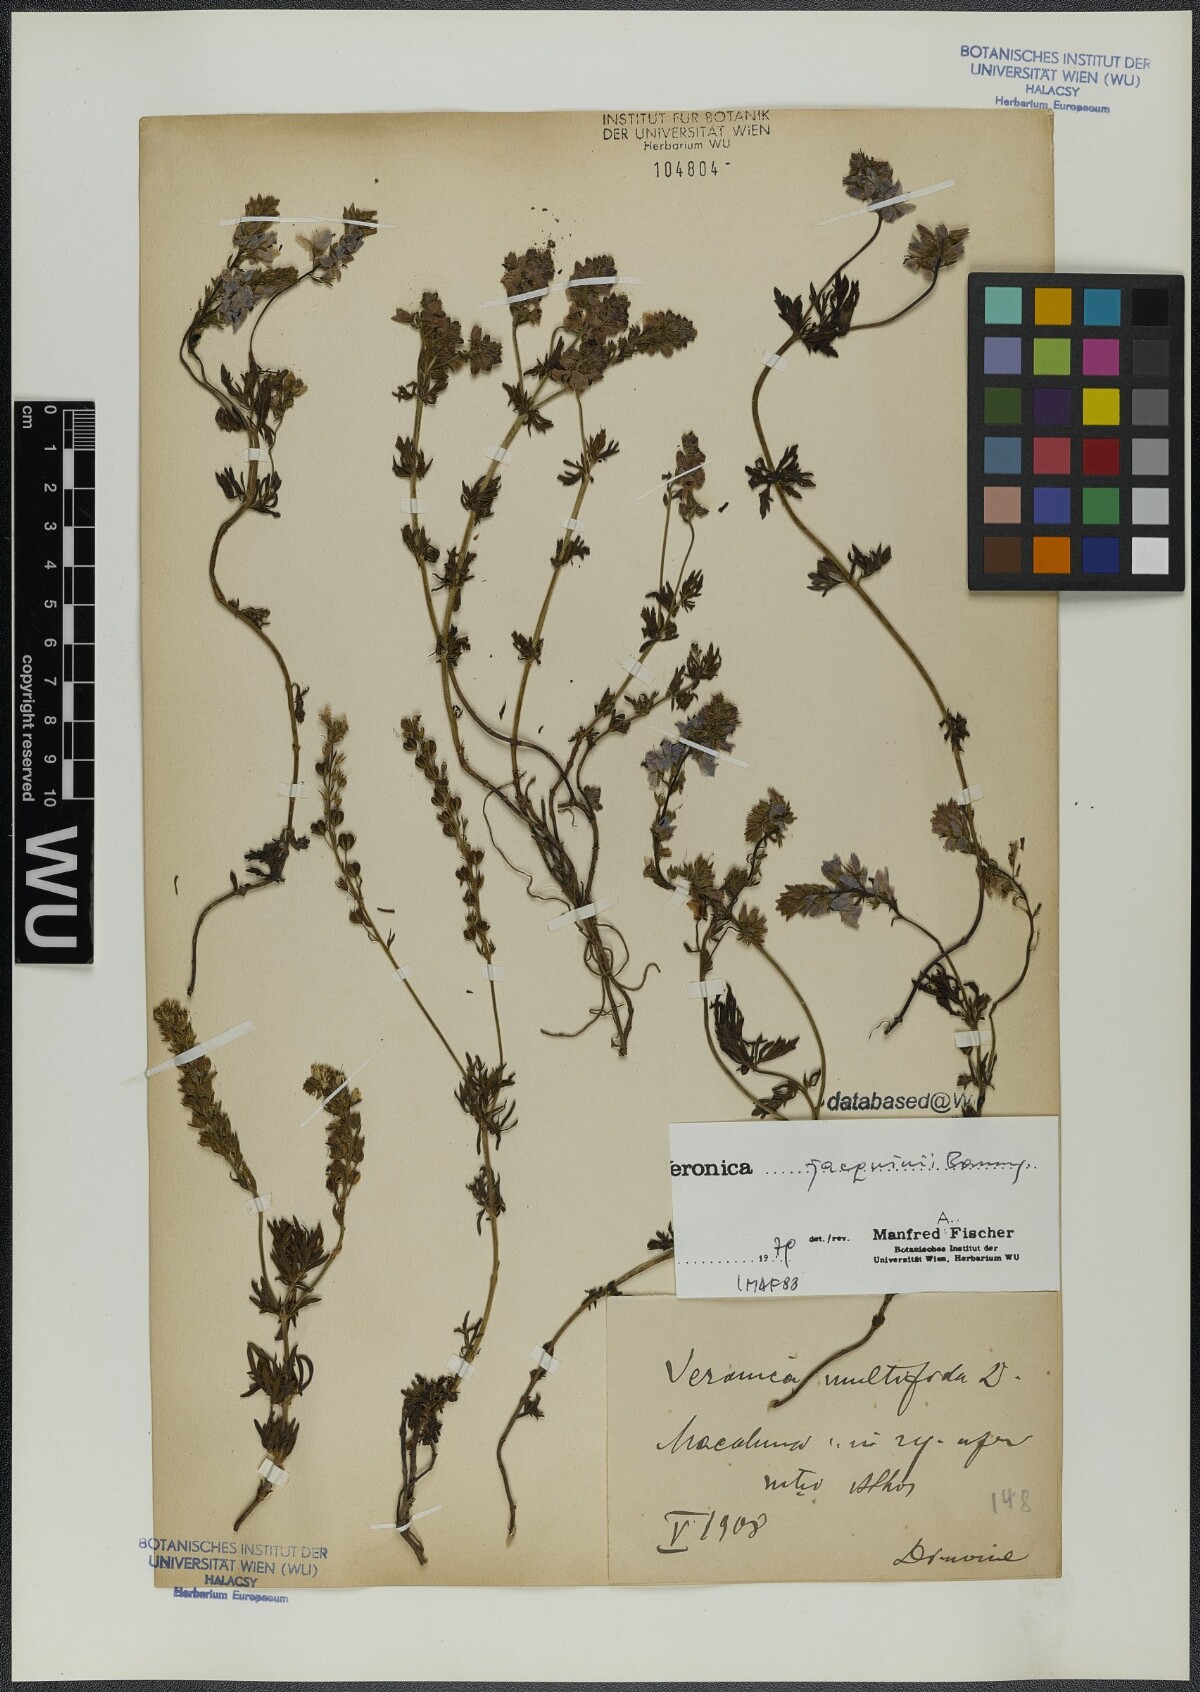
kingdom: Plantae
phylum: Tracheophyta
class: Magnoliopsida
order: Lamiales
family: Plantaginaceae
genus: Veronica
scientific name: Veronica austriaca
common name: Large speedwell
